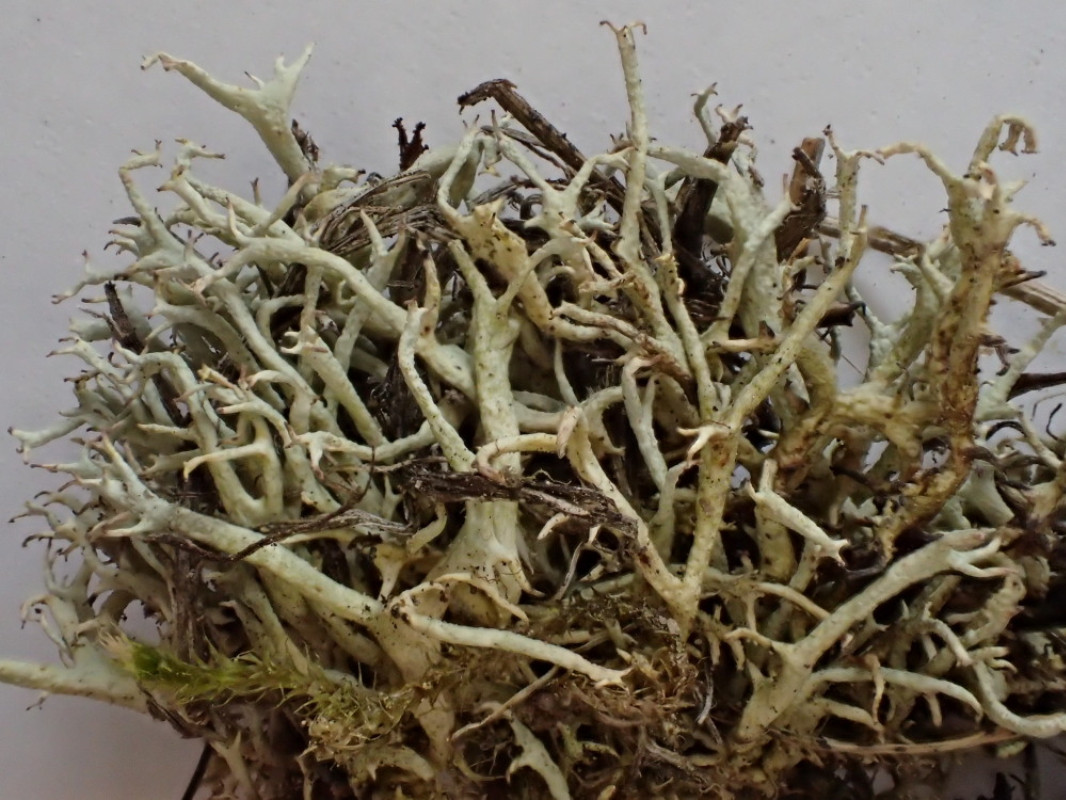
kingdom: Fungi
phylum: Ascomycota
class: Lecanoromycetes
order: Lecanorales
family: Cladoniaceae
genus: Cladonia
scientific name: Cladonia zopfii
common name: klit-bægerlav
